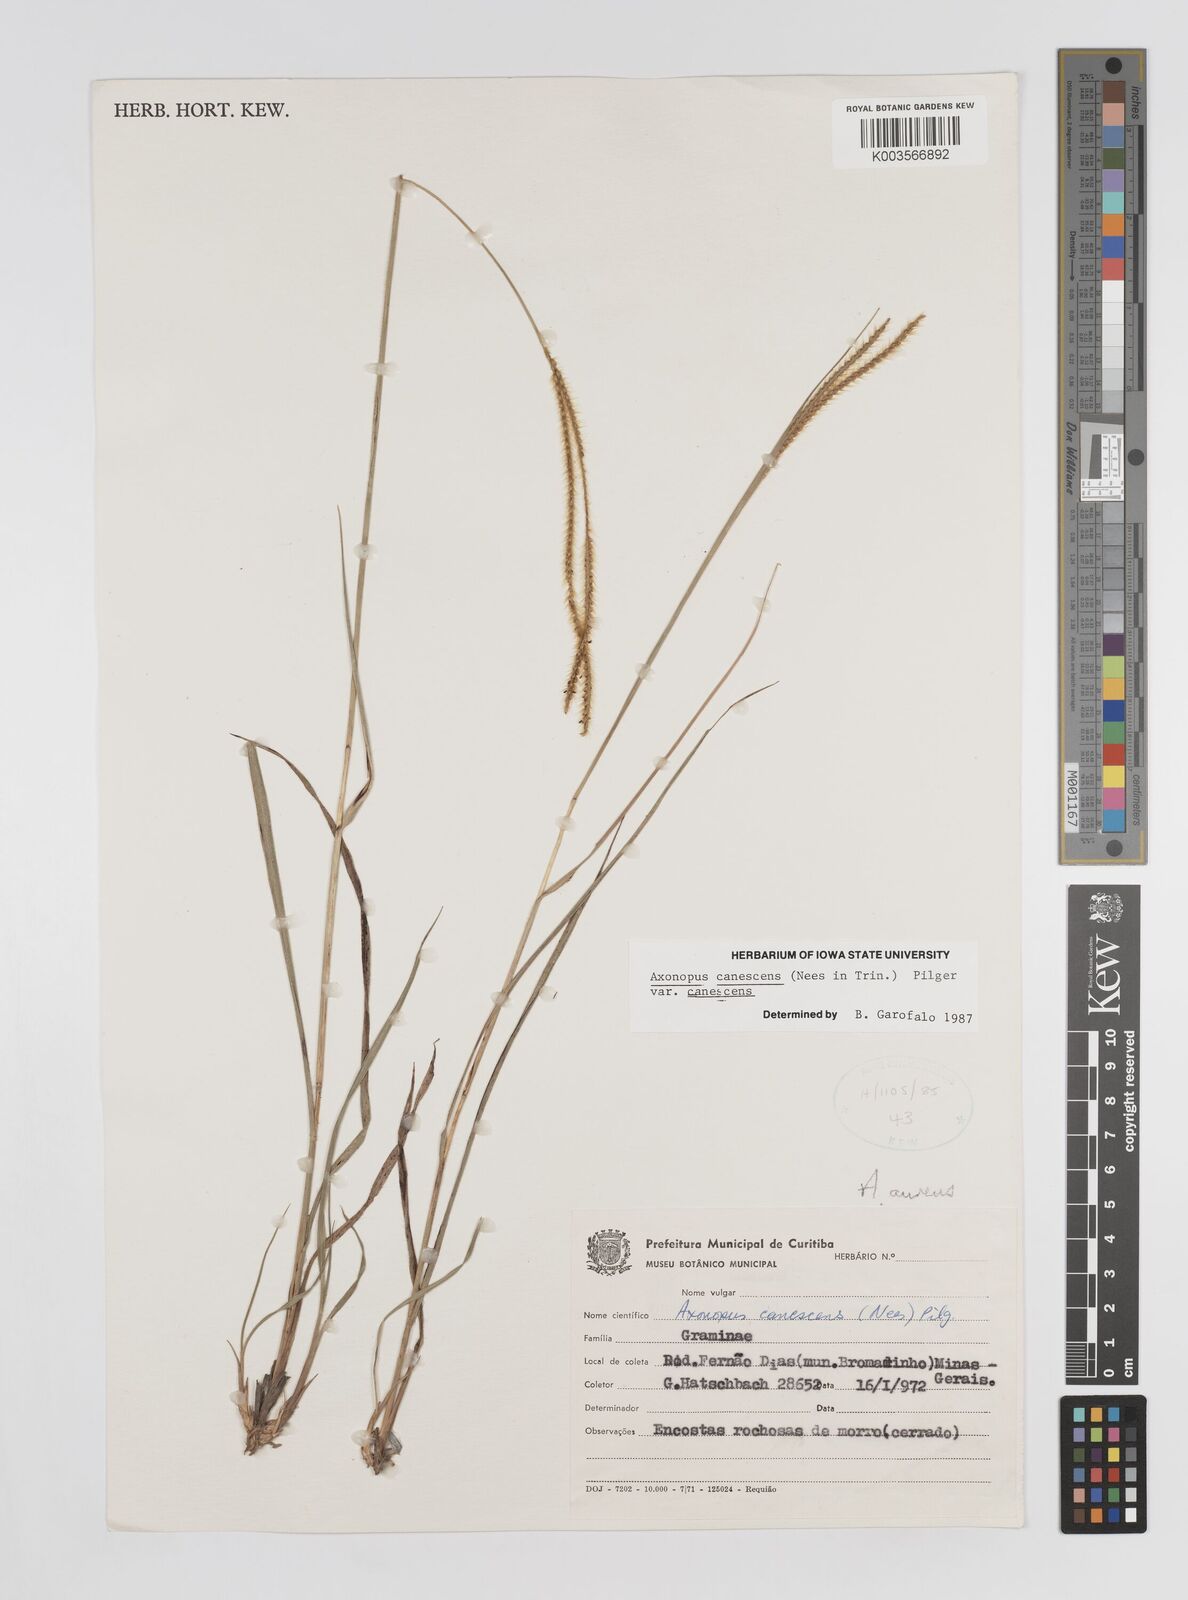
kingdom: Plantae
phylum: Tracheophyta
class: Liliopsida
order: Poales
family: Poaceae
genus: Axonopus
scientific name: Axonopus aureus
